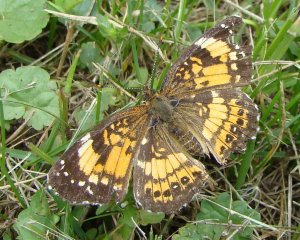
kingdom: Animalia
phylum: Arthropoda
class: Insecta
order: Lepidoptera
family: Nymphalidae
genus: Chlosyne
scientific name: Chlosyne nycteis
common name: Silvery Checkerspot
